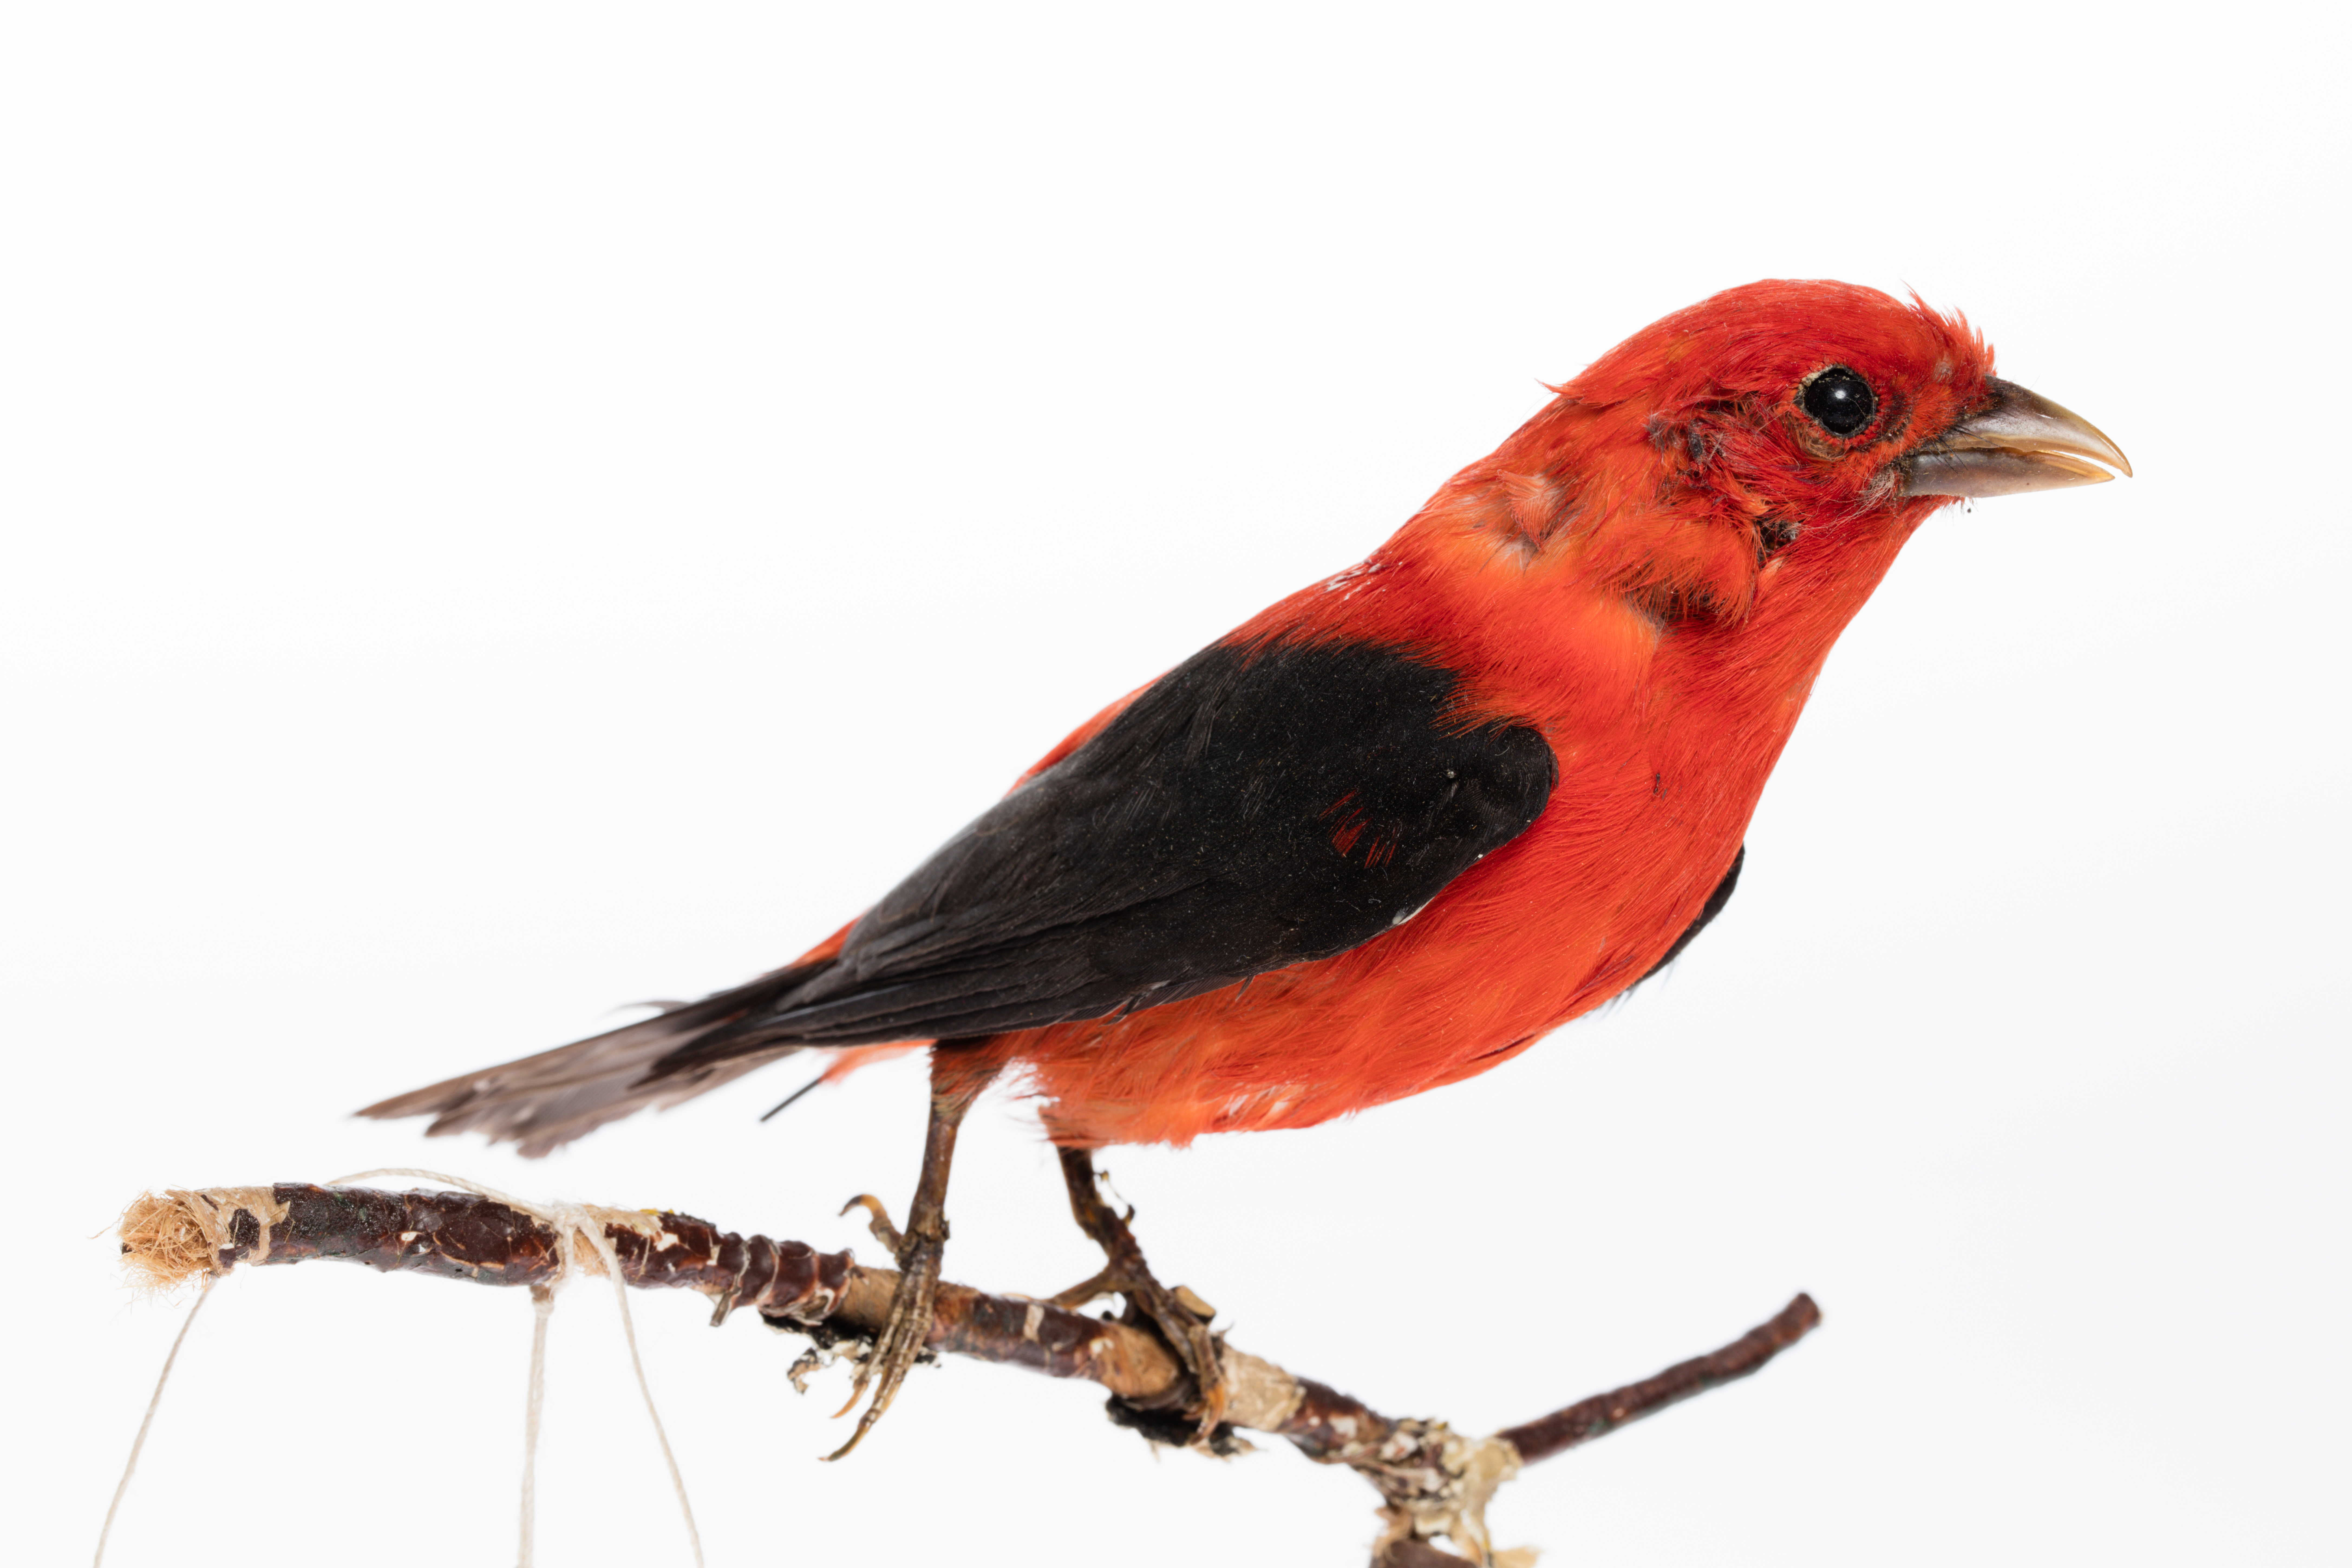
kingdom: Animalia
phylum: Chordata
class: Aves
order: Passeriformes
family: Cardinalidae
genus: Piranga
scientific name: Piranga olivacea
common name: Scarlet tanager
